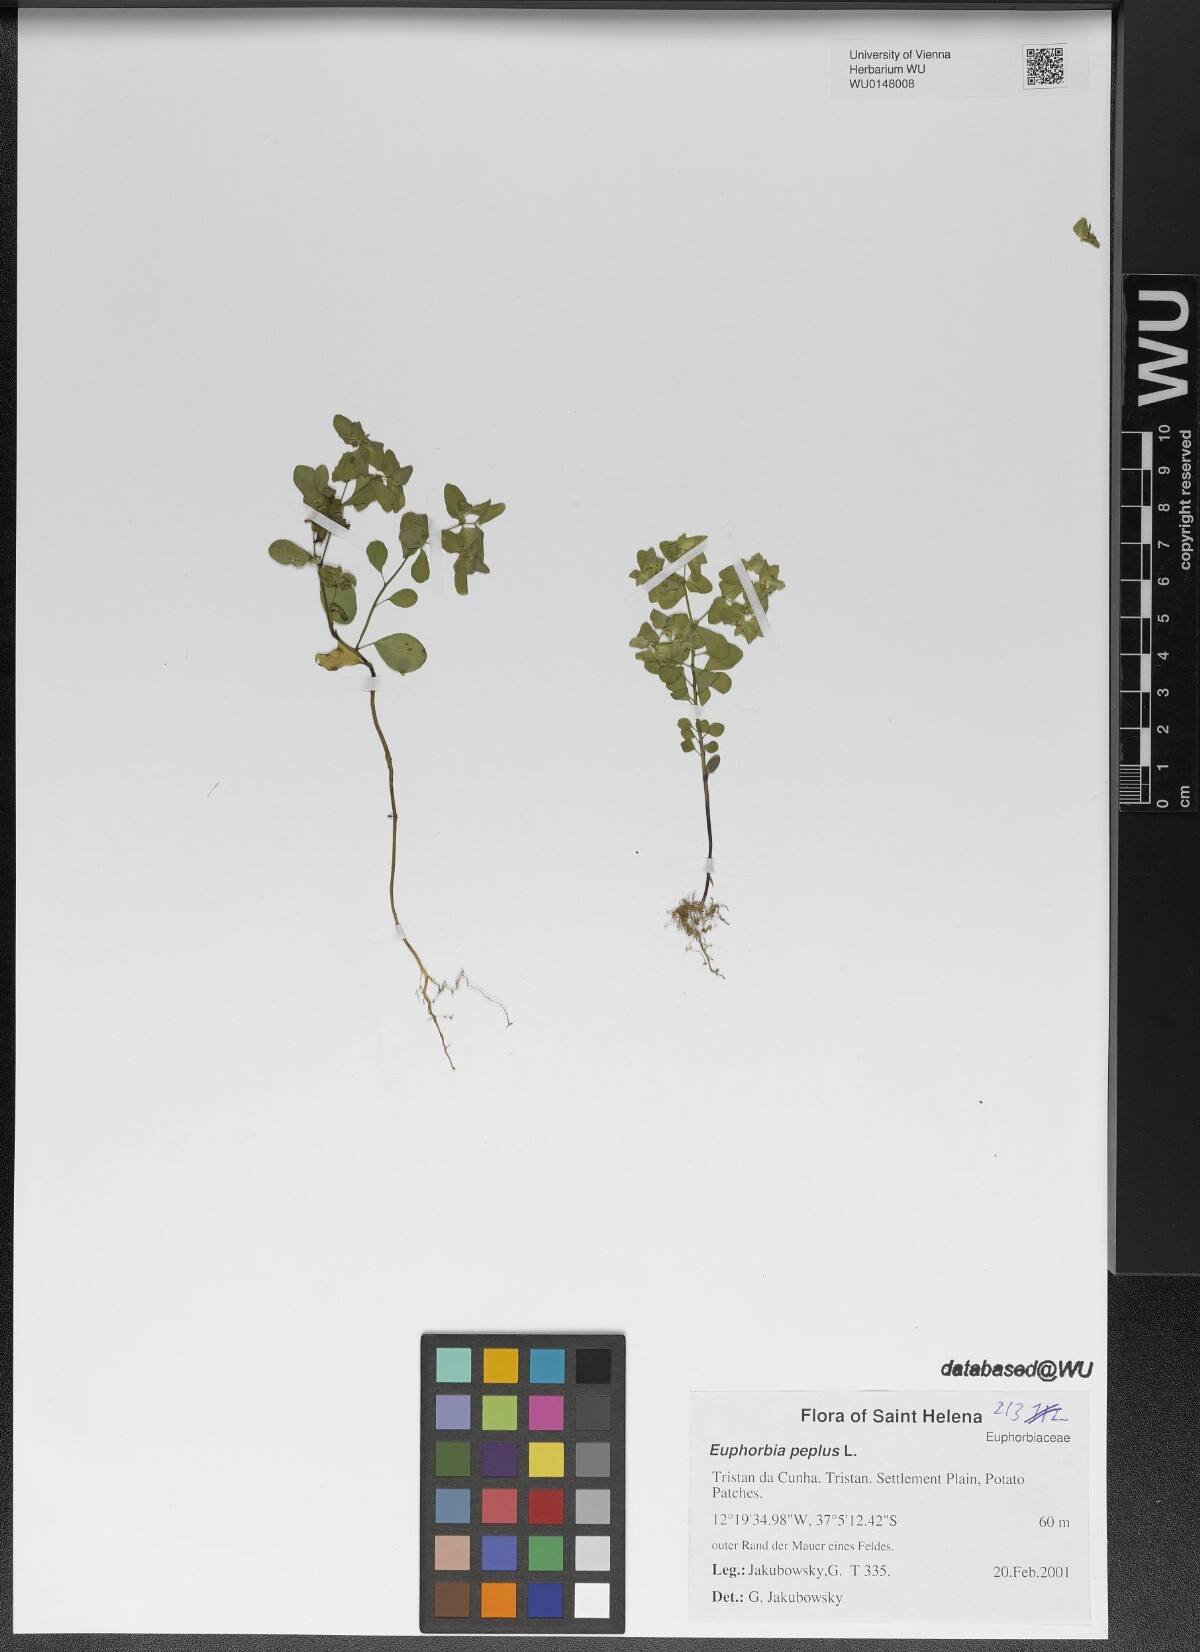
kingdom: Plantae
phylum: Tracheophyta
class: Magnoliopsida
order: Malpighiales
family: Euphorbiaceae
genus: Euphorbia
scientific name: Euphorbia peplus
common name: Petty spurge
